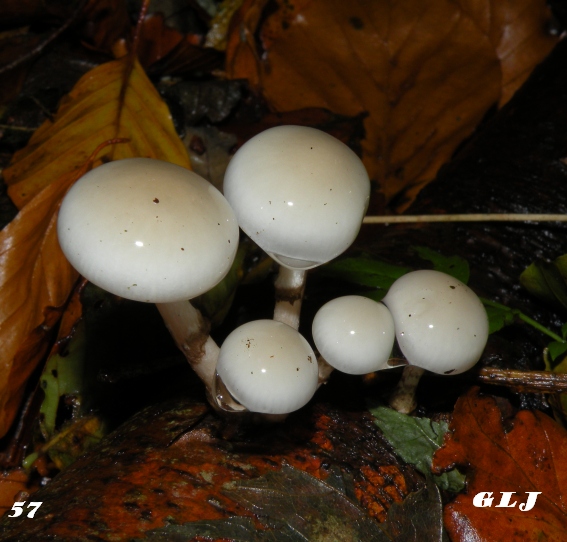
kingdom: Fungi
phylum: Basidiomycota
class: Agaricomycetes
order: Agaricales
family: Physalacriaceae
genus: Mucidula
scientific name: Mucidula mucida
